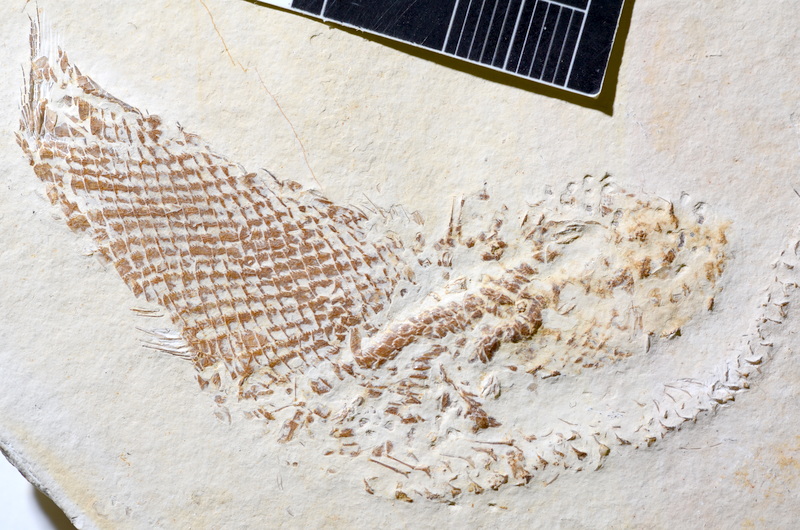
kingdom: Animalia
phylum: Chordata
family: Ophiopsiellidae
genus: Furo
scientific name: Furo latimanus
